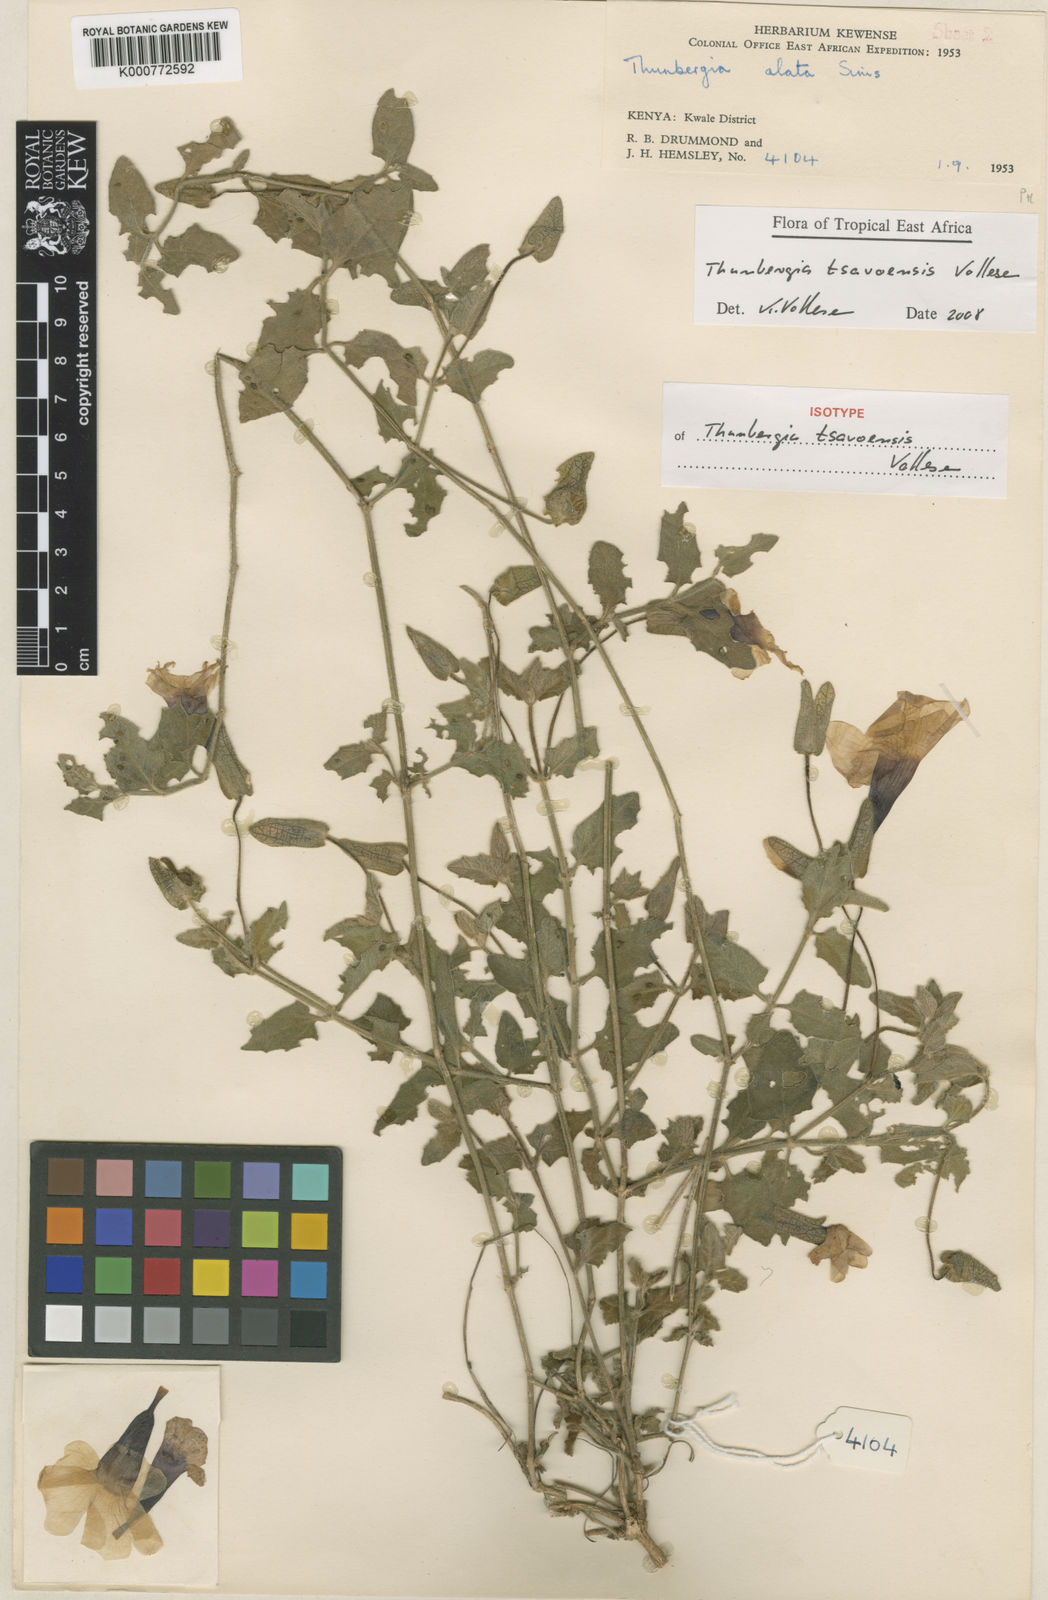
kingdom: Plantae
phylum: Tracheophyta
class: Magnoliopsida
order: Lamiales
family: Acanthaceae
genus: Thunbergia
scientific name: Thunbergia tsavoensis
